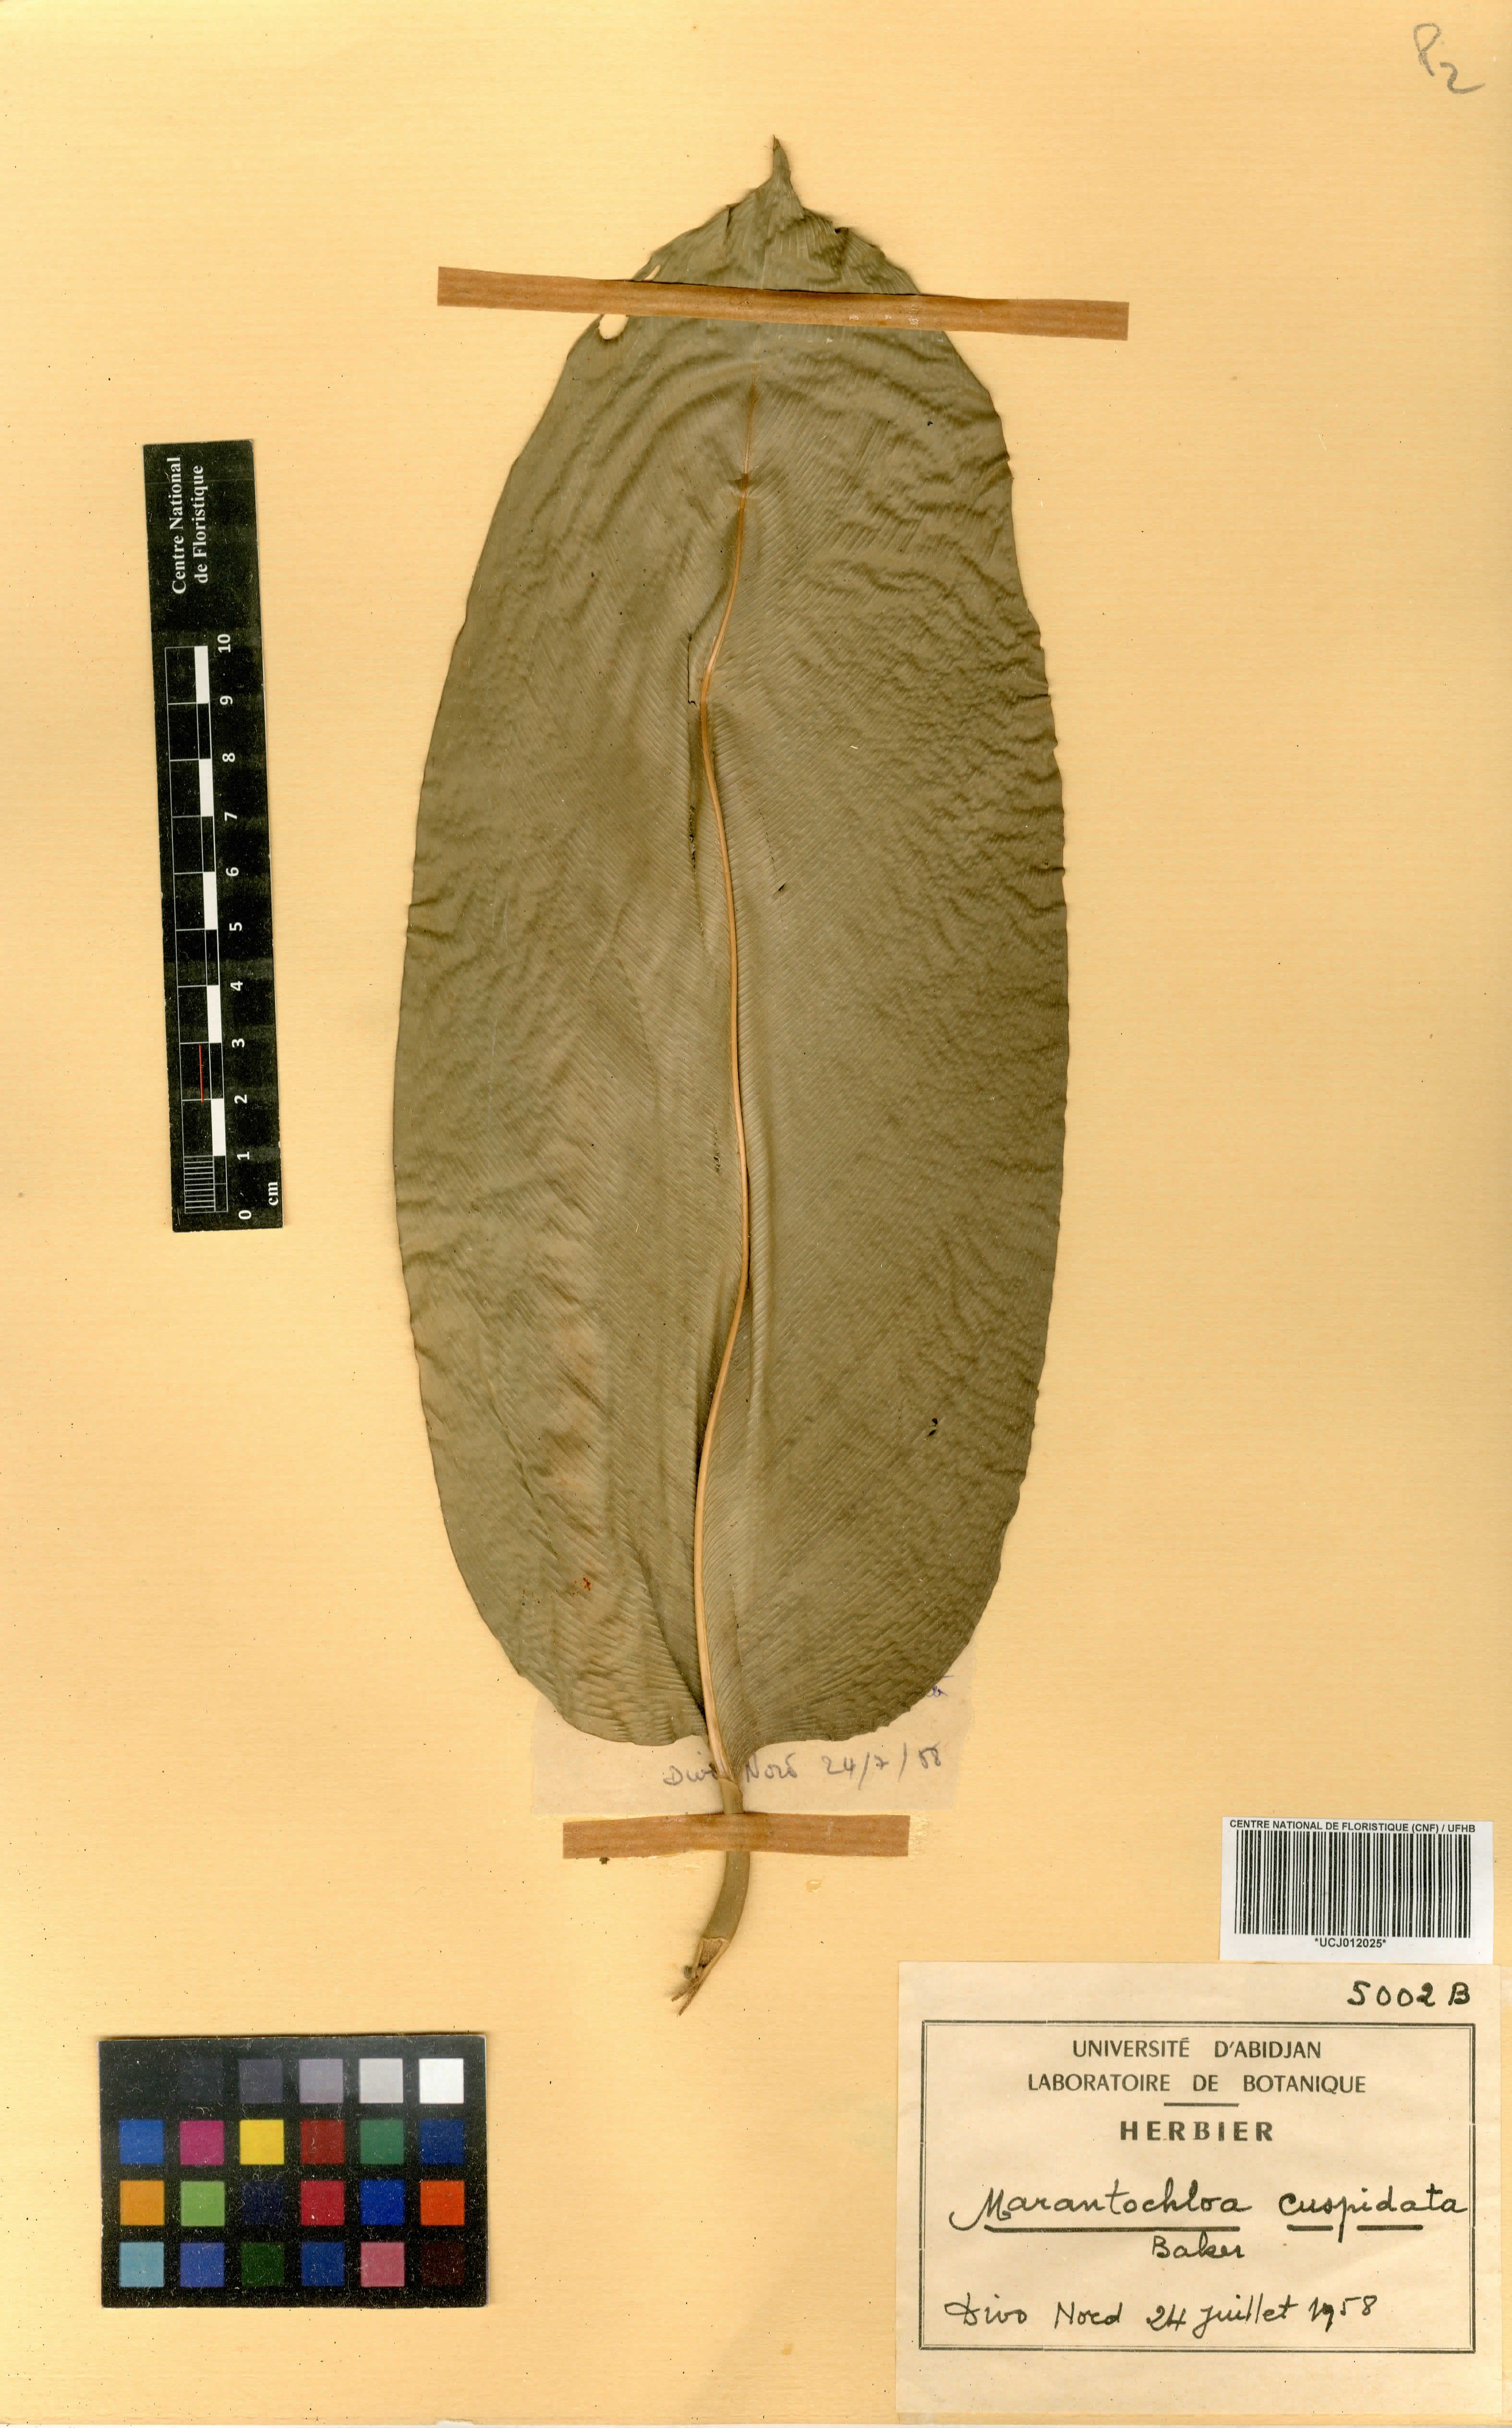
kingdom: Plantae
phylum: Tracheophyta
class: Liliopsida
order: Zingiberales
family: Marantaceae
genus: Marantochloa
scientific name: Marantochloa cuspidata
